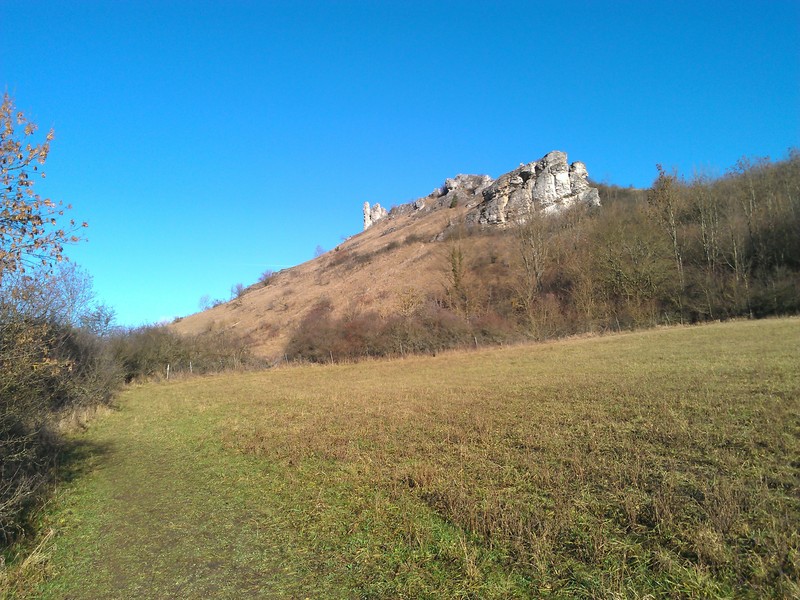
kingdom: Fungi
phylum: Ascomycota
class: Sordariomycetes
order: Hypocreales
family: Bionectriaceae
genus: Paranectria
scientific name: Paranectria oropensis
